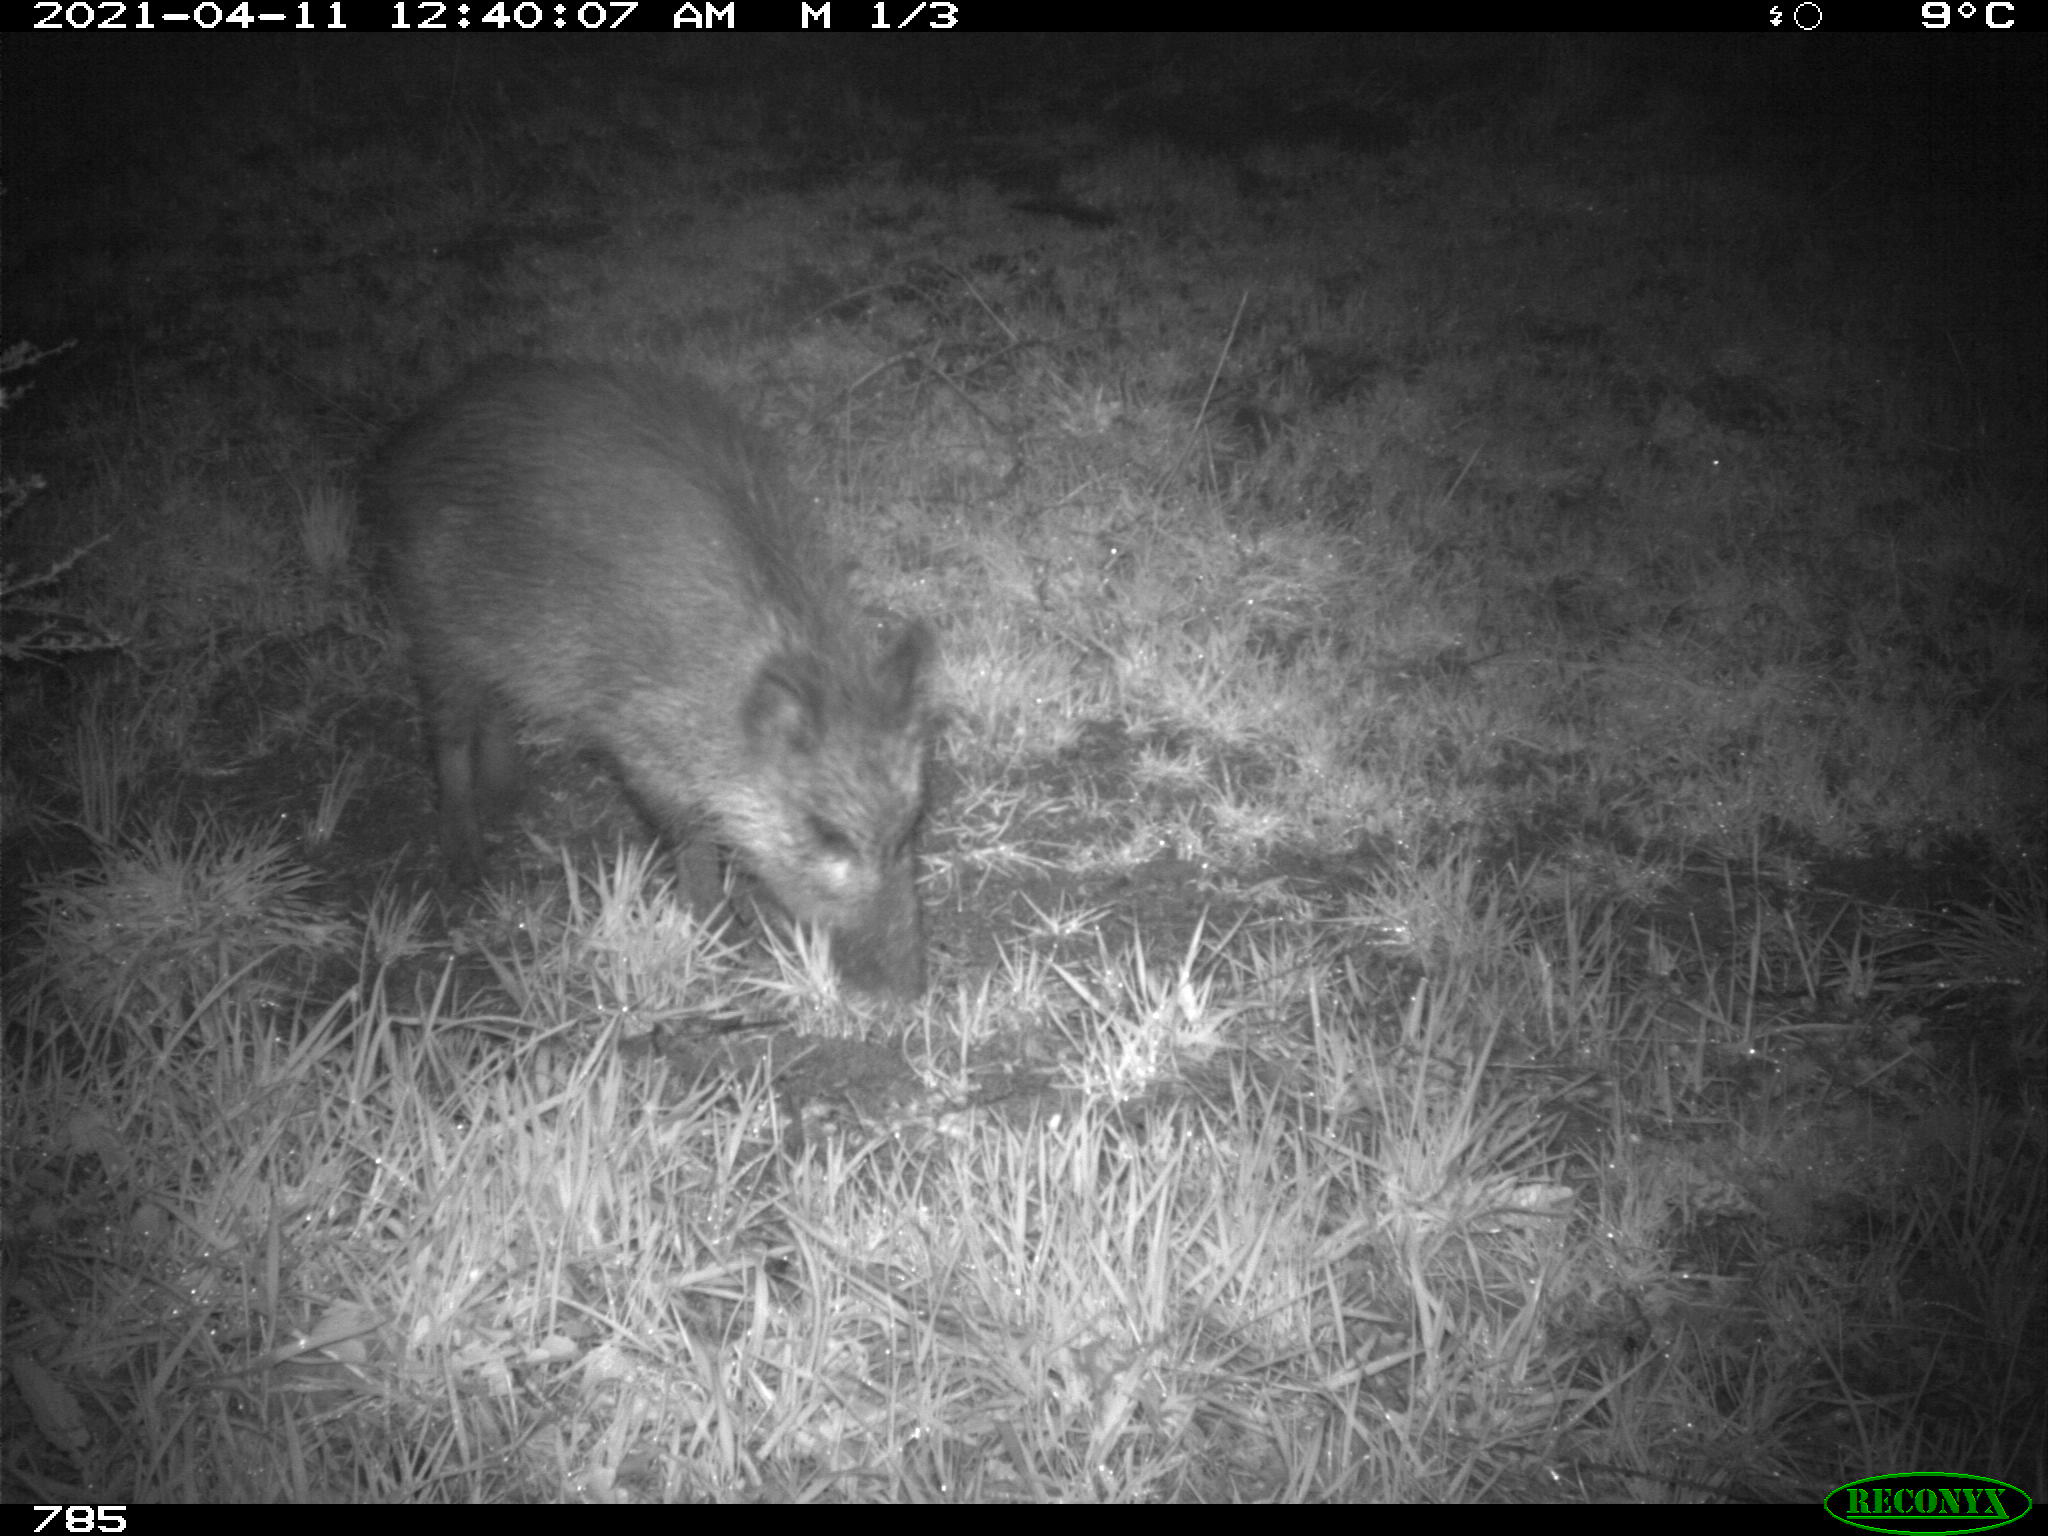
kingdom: Animalia
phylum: Chordata
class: Mammalia
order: Artiodactyla
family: Suidae
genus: Sus
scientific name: Sus scrofa
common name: Wild boar
